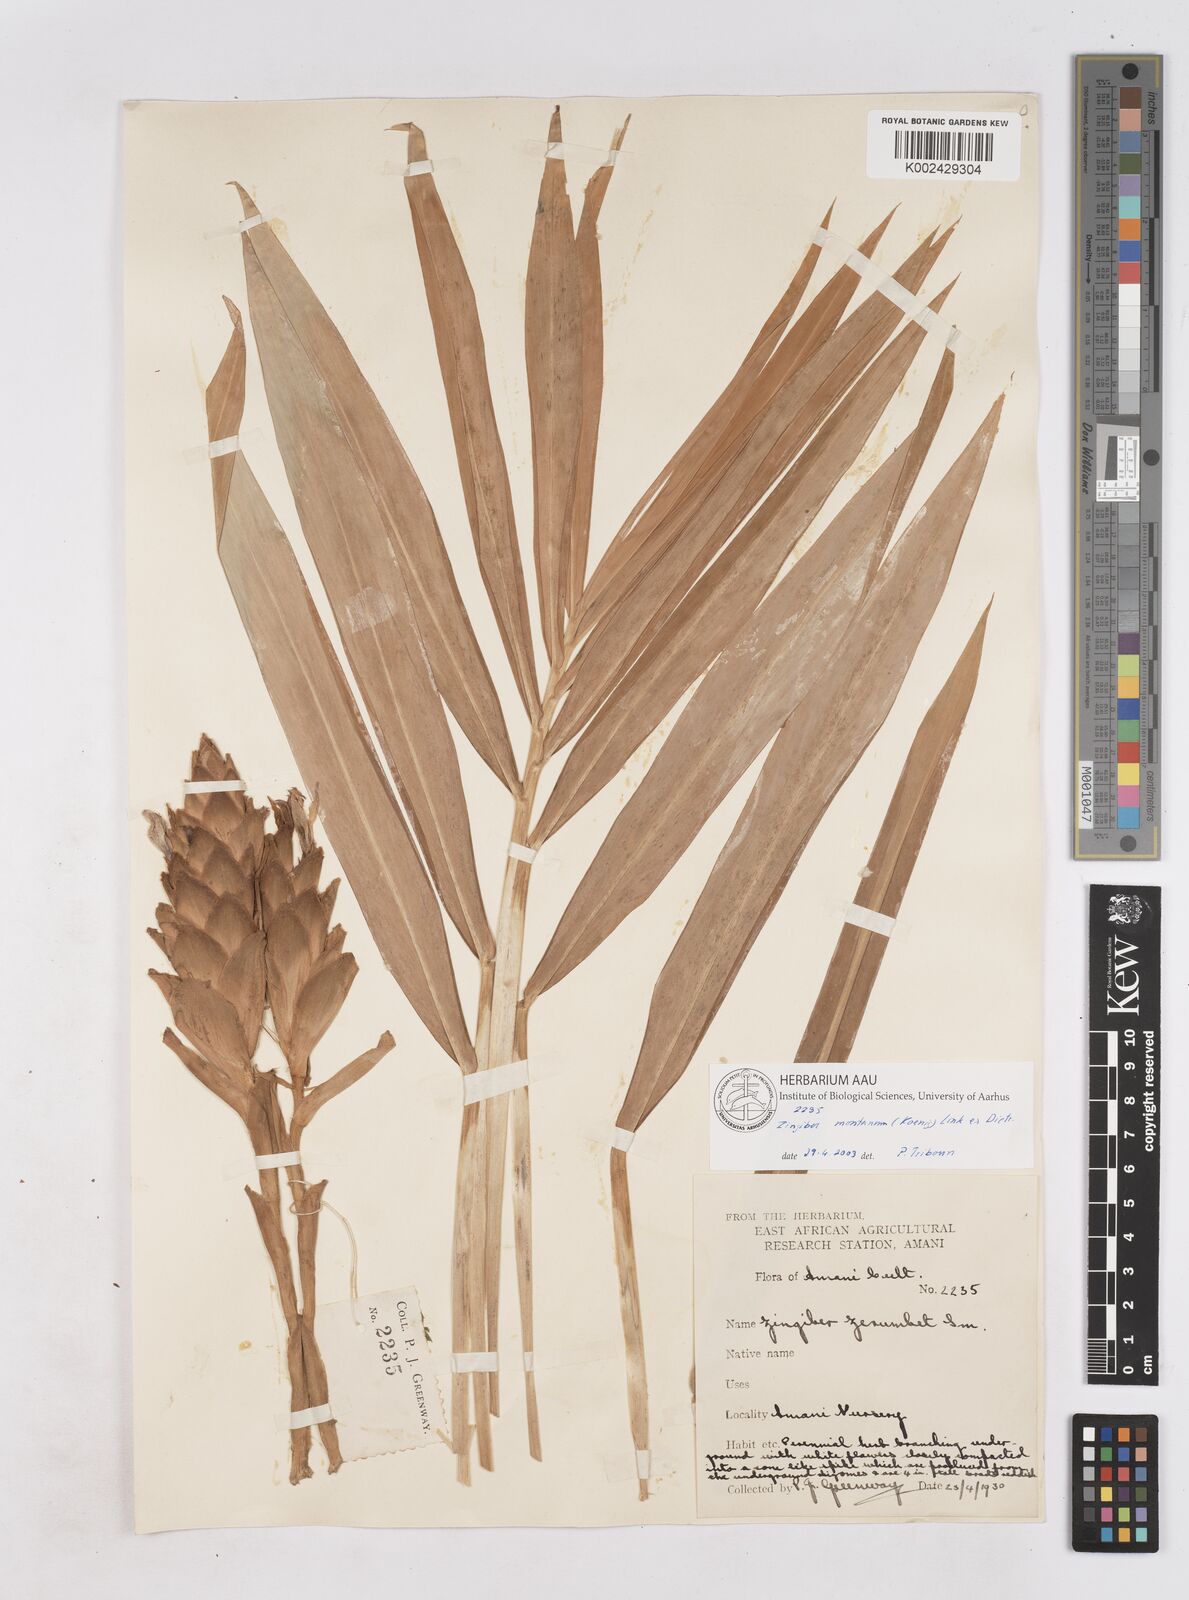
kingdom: Plantae
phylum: Tracheophyta
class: Liliopsida
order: Zingiberales
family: Zingiberaceae
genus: Zingiber
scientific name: Zingiber montanum
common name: Bengal ginger
